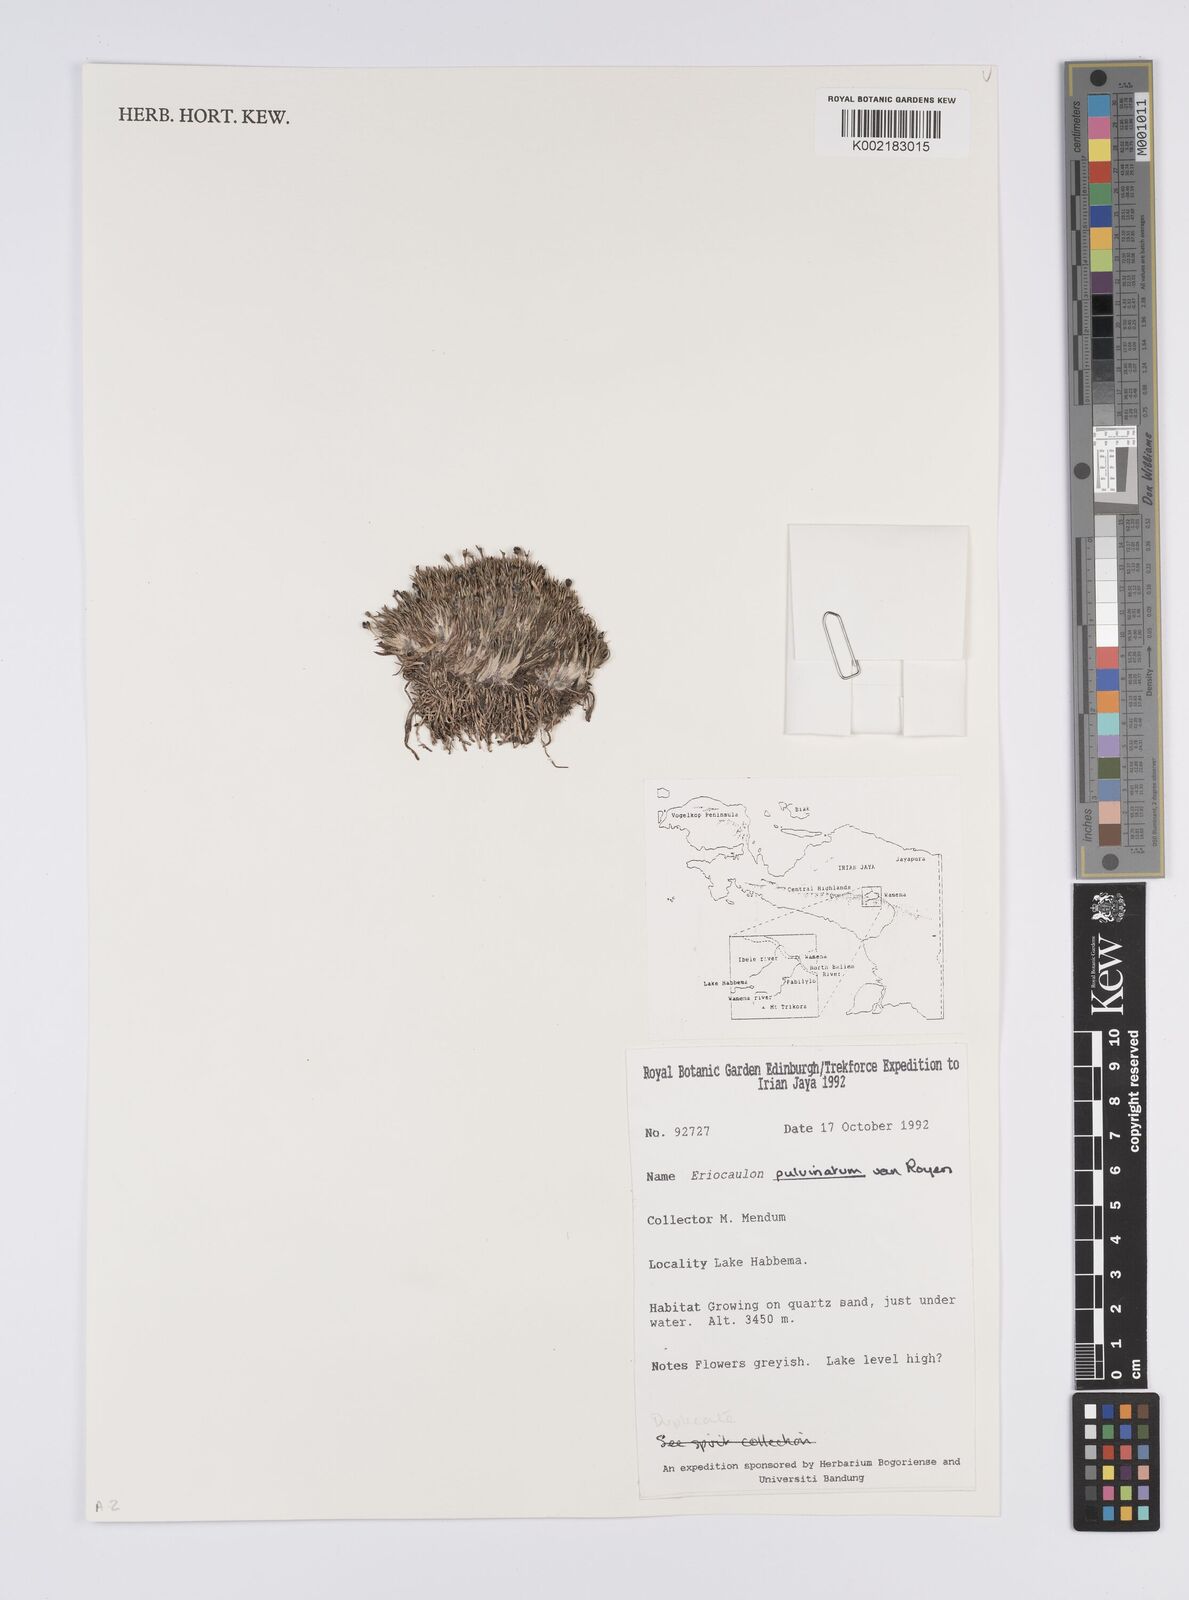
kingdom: Plantae
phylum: Tracheophyta
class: Liliopsida
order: Poales
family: Eriocaulaceae
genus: Eriocaulon
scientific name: Eriocaulon pulvinatum
